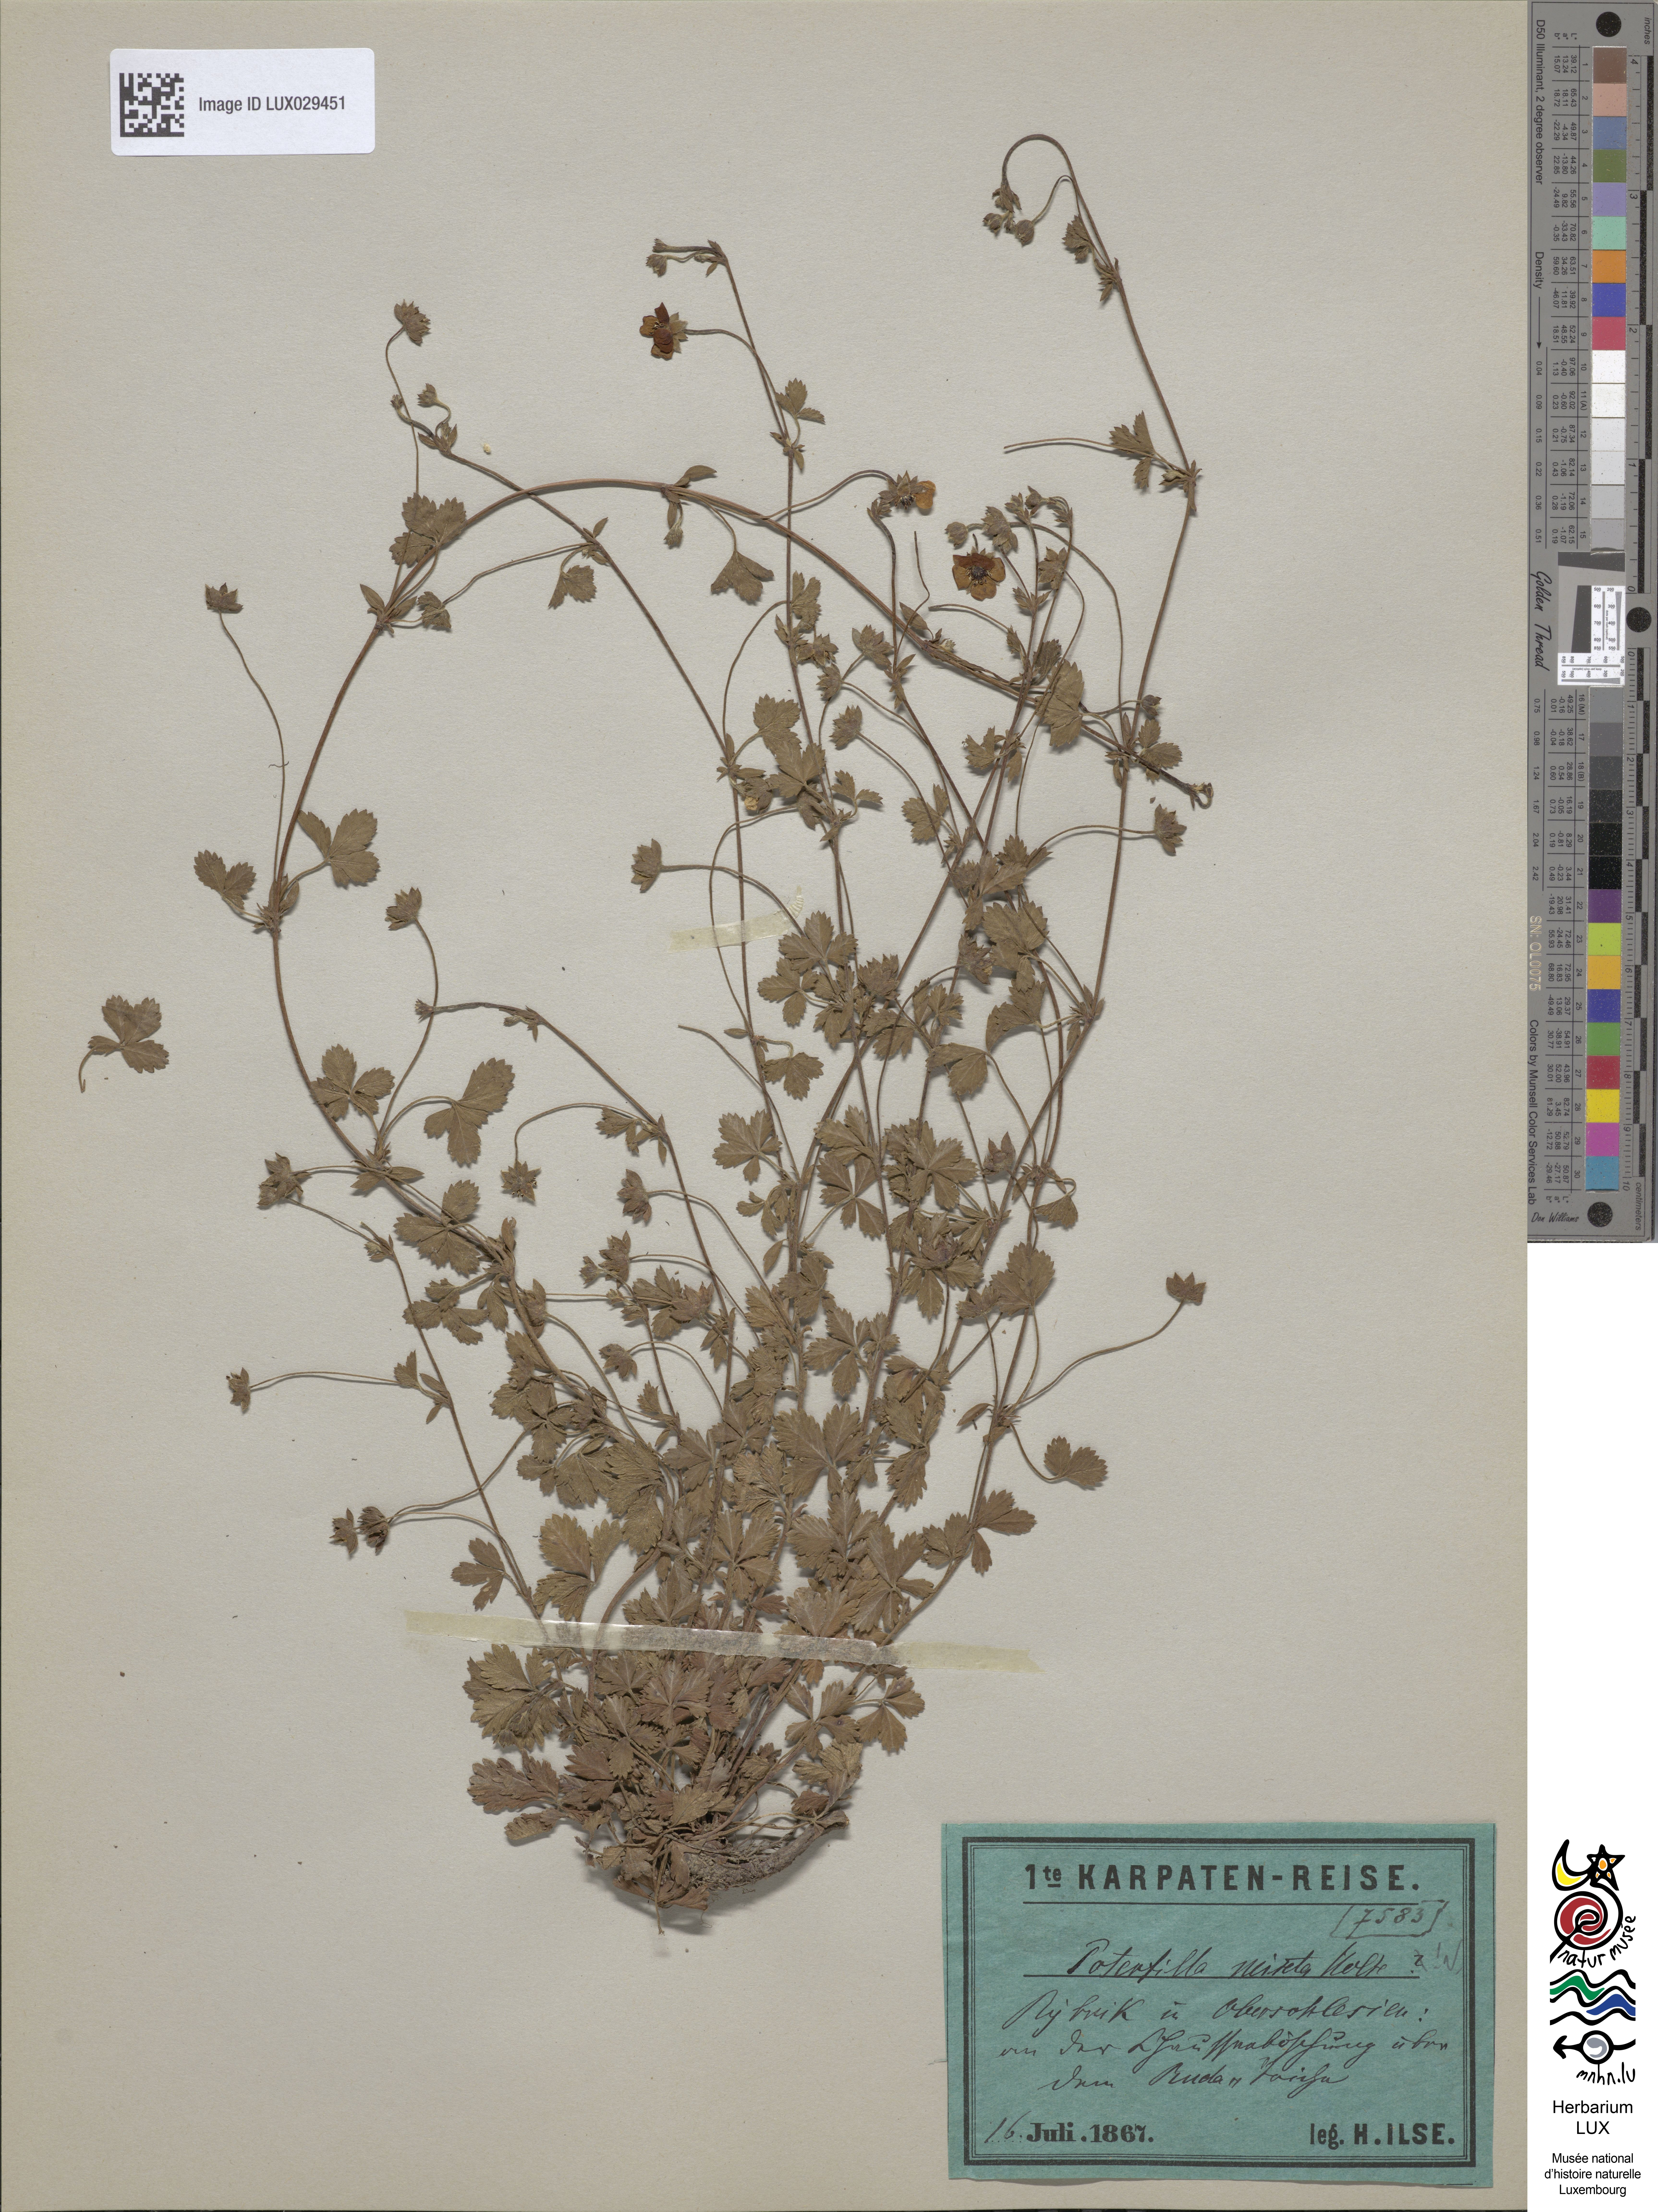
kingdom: Plantae
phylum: Tracheophyta
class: Magnoliopsida
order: Rosales
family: Rosaceae
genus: Potentilla
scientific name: Potentilla mixta
